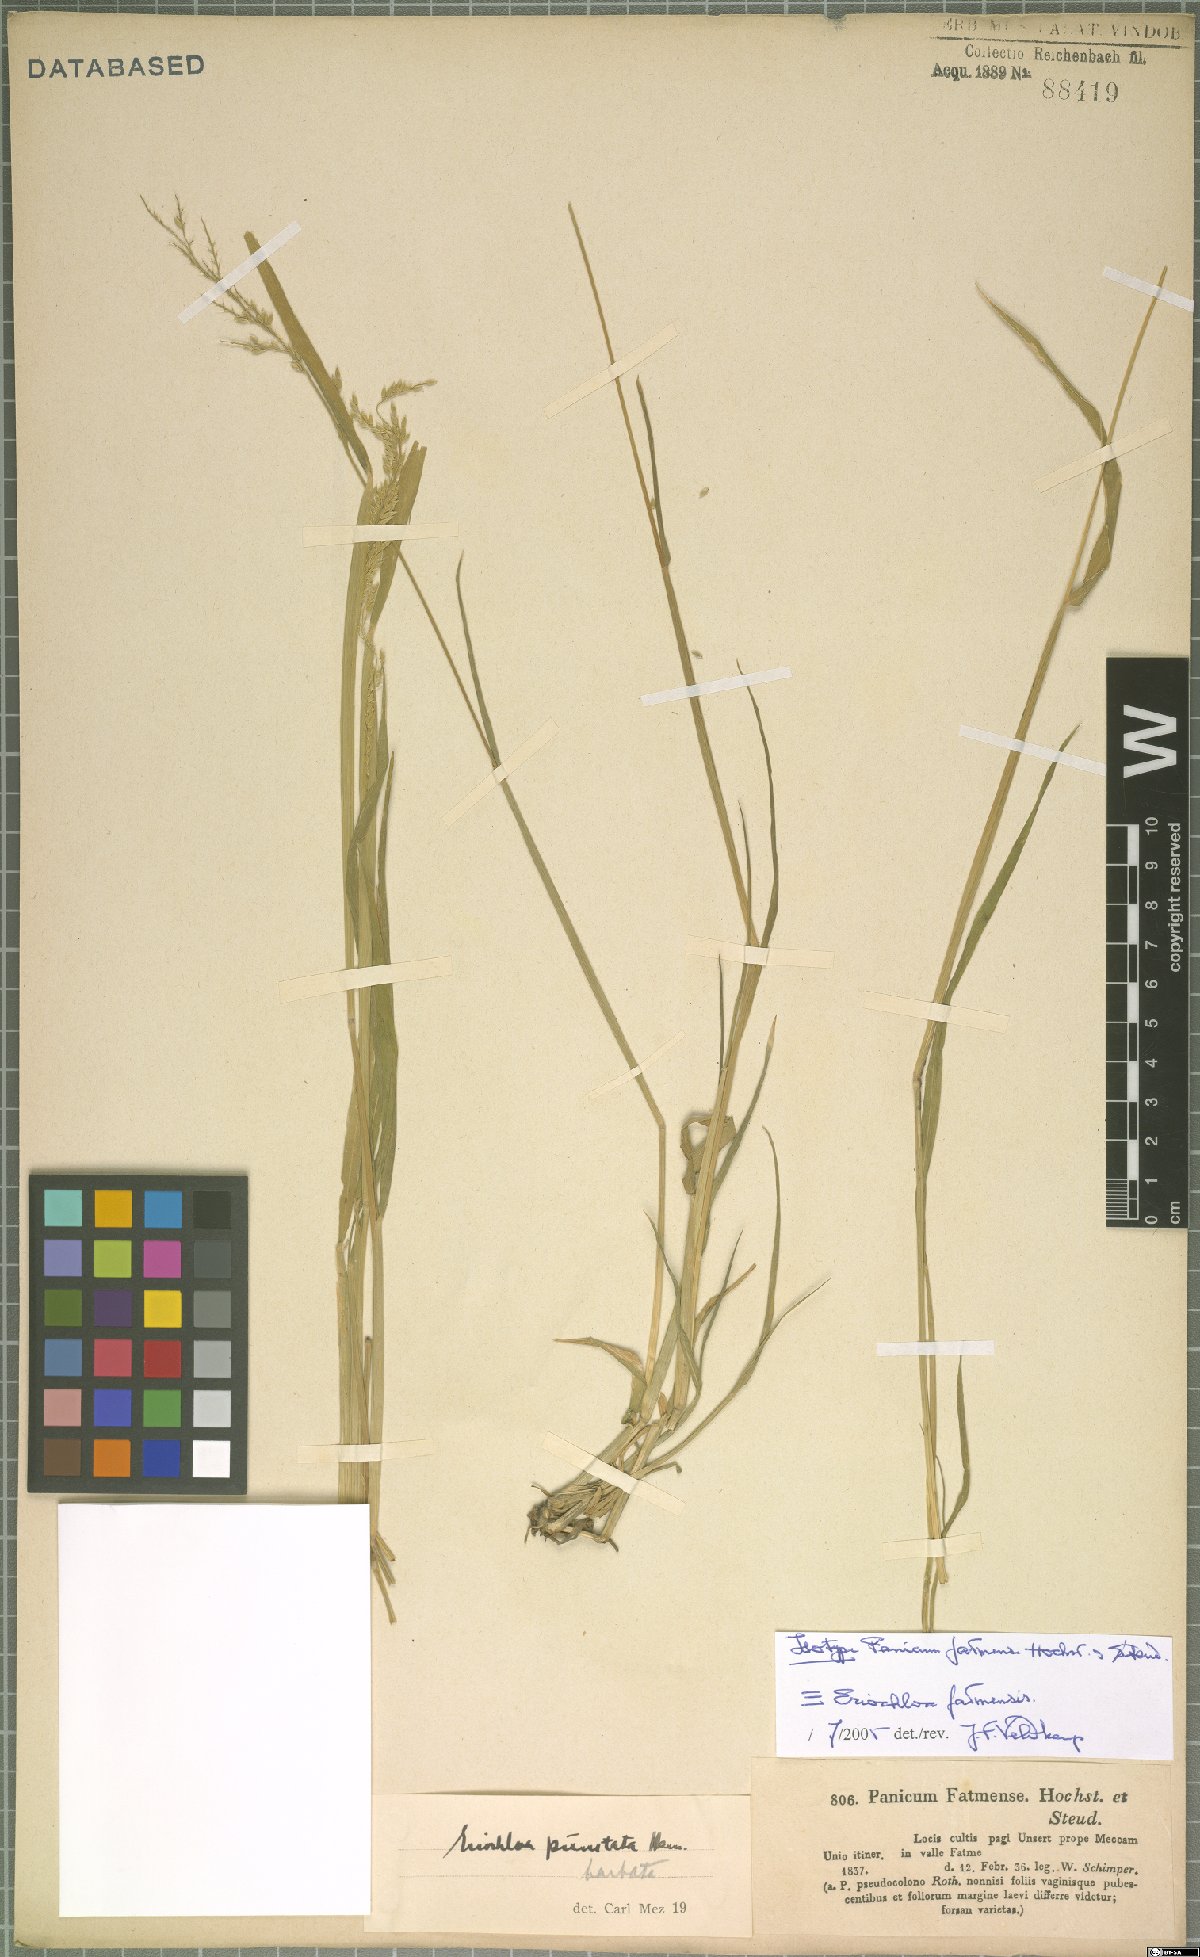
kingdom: Plantae
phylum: Tracheophyta
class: Liliopsida
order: Poales
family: Poaceae
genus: Eriochloa
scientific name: Eriochloa barbatus
